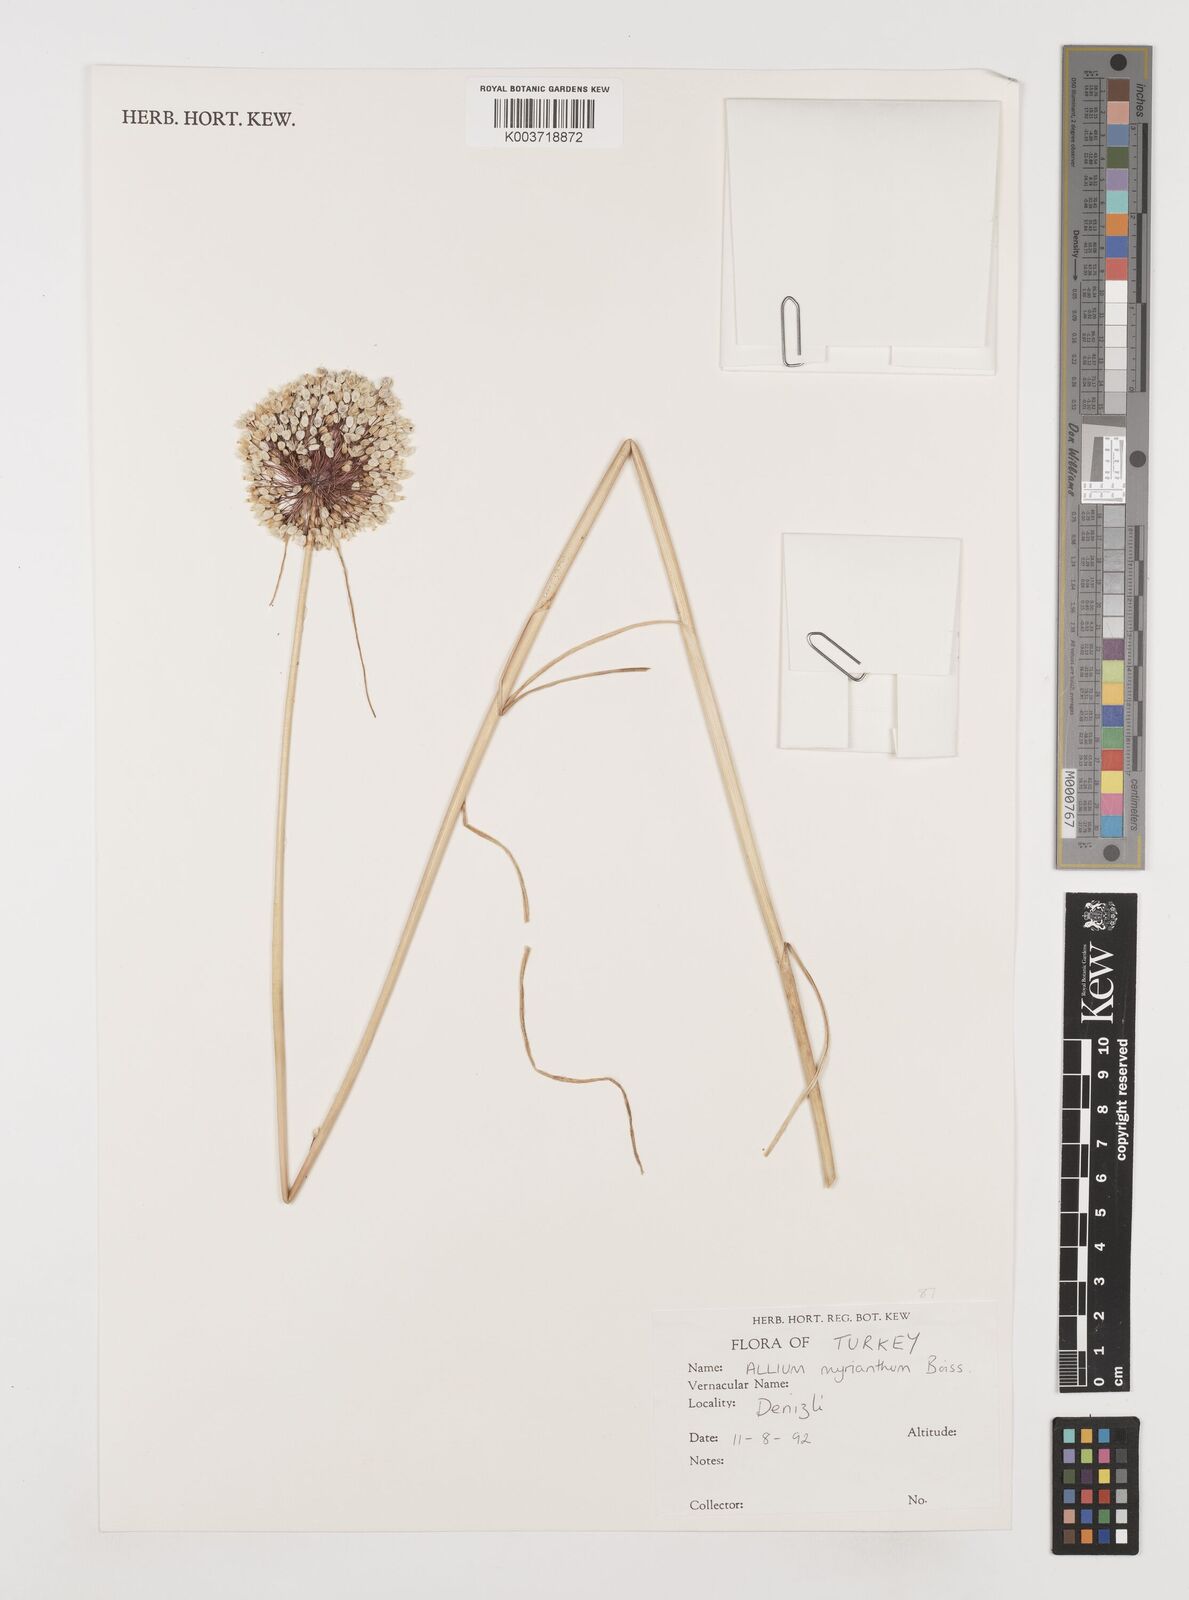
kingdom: Plantae
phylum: Tracheophyta
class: Liliopsida
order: Asparagales
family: Amaryllidaceae
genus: Allium
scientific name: Allium myrianthum
